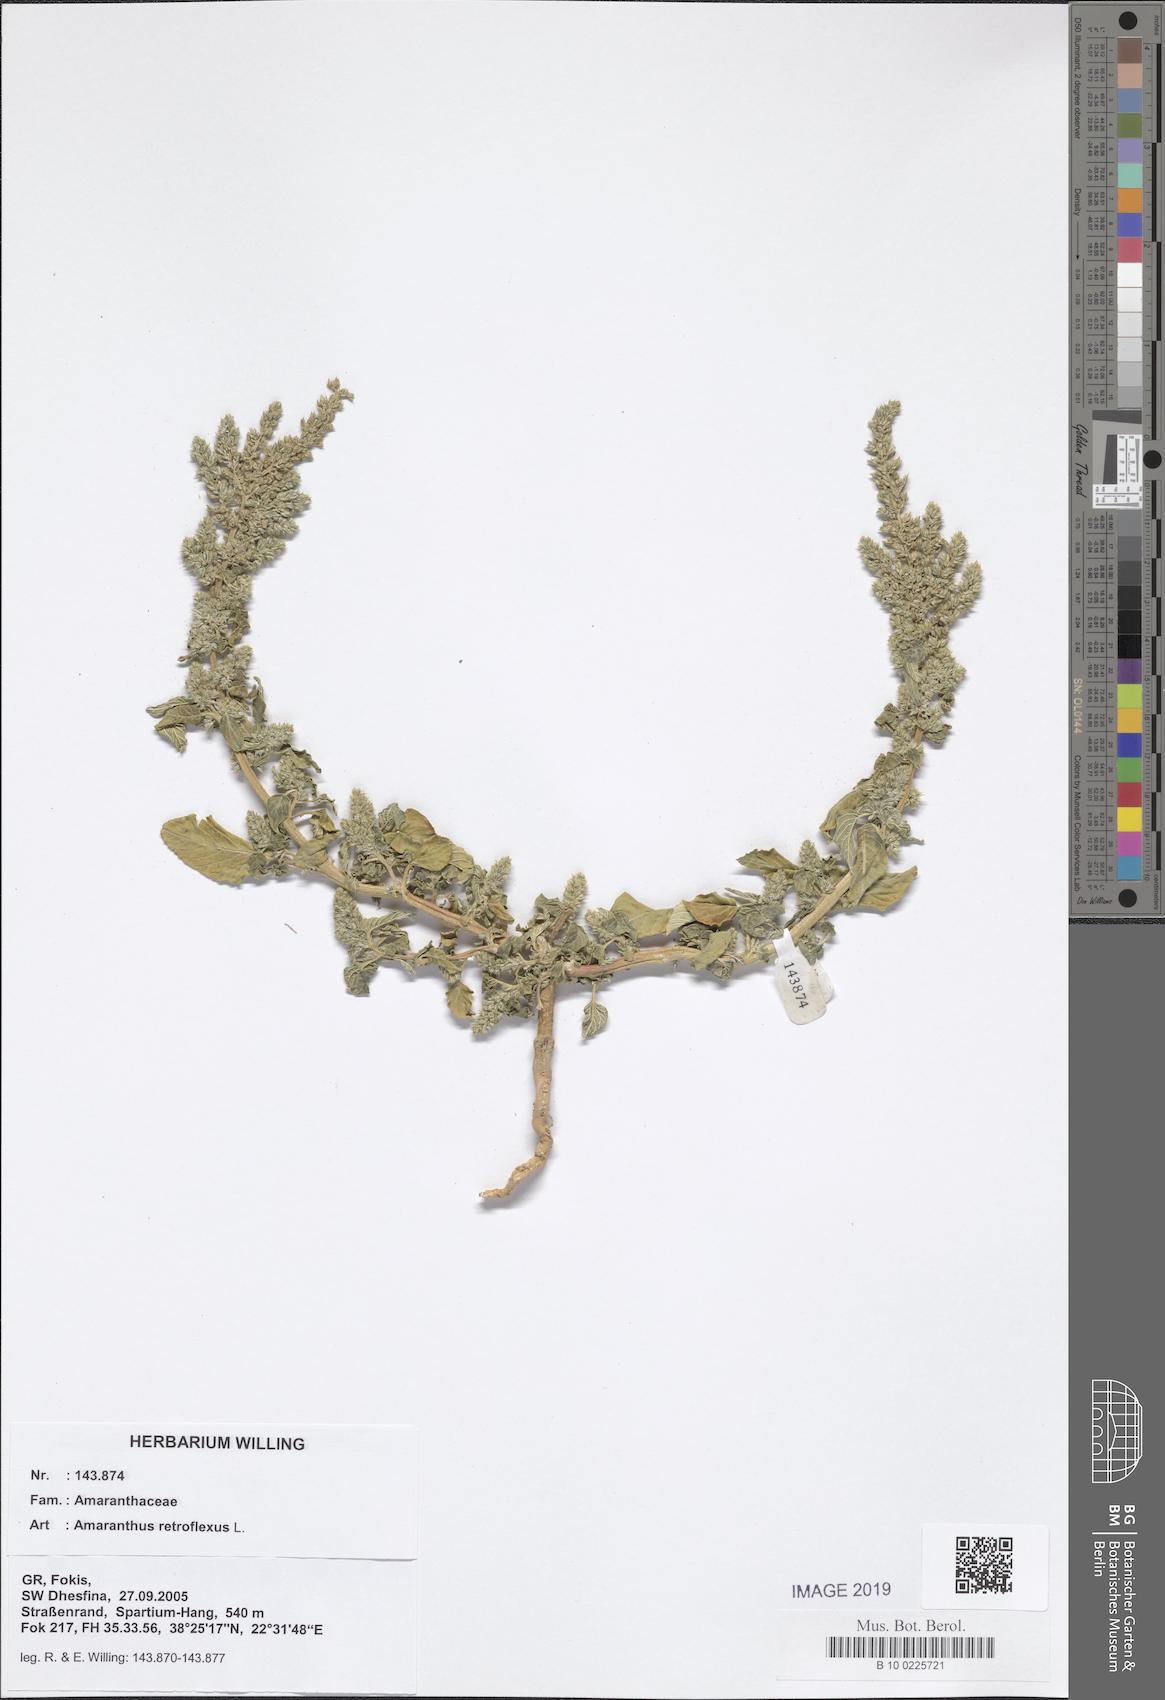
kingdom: Plantae
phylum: Tracheophyta
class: Magnoliopsida
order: Caryophyllales
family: Amaranthaceae
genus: Amaranthus
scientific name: Amaranthus retroflexus
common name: Redroot amaranth
